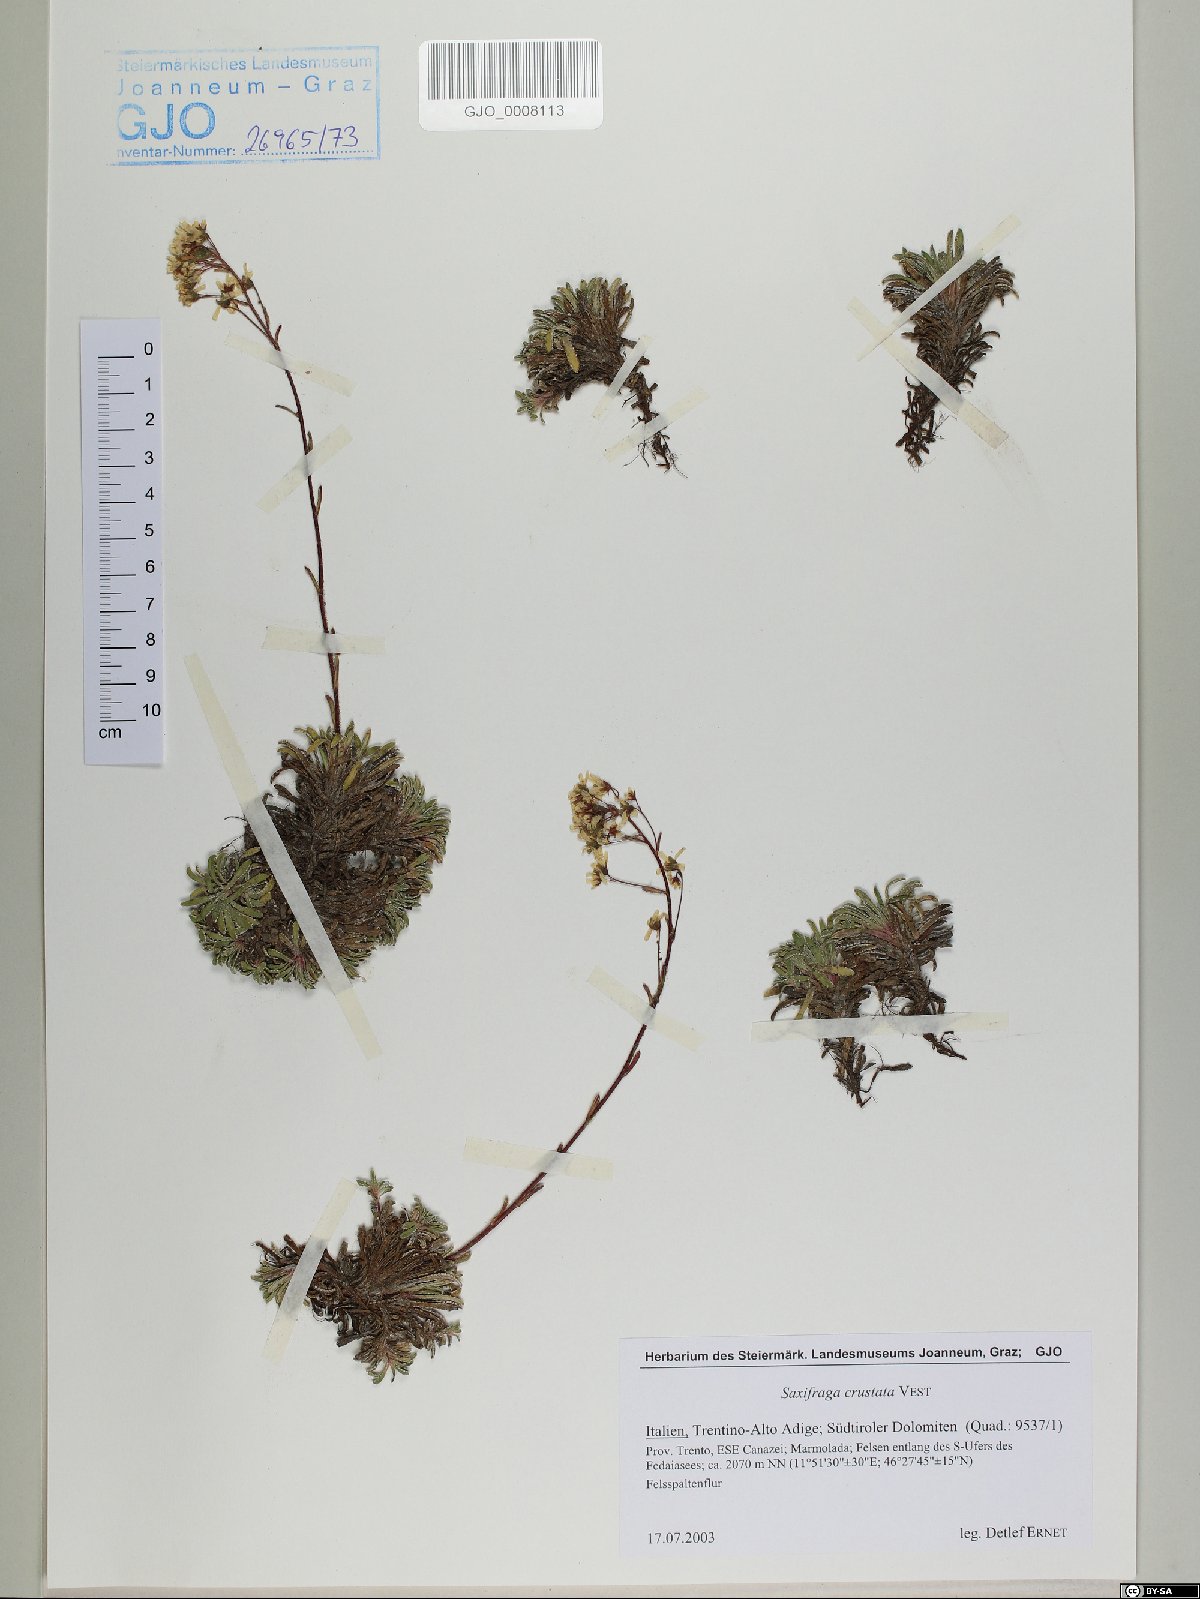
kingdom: Plantae
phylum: Tracheophyta
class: Magnoliopsida
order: Saxifragales
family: Saxifragaceae
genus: Saxifraga
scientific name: Saxifraga crustata
